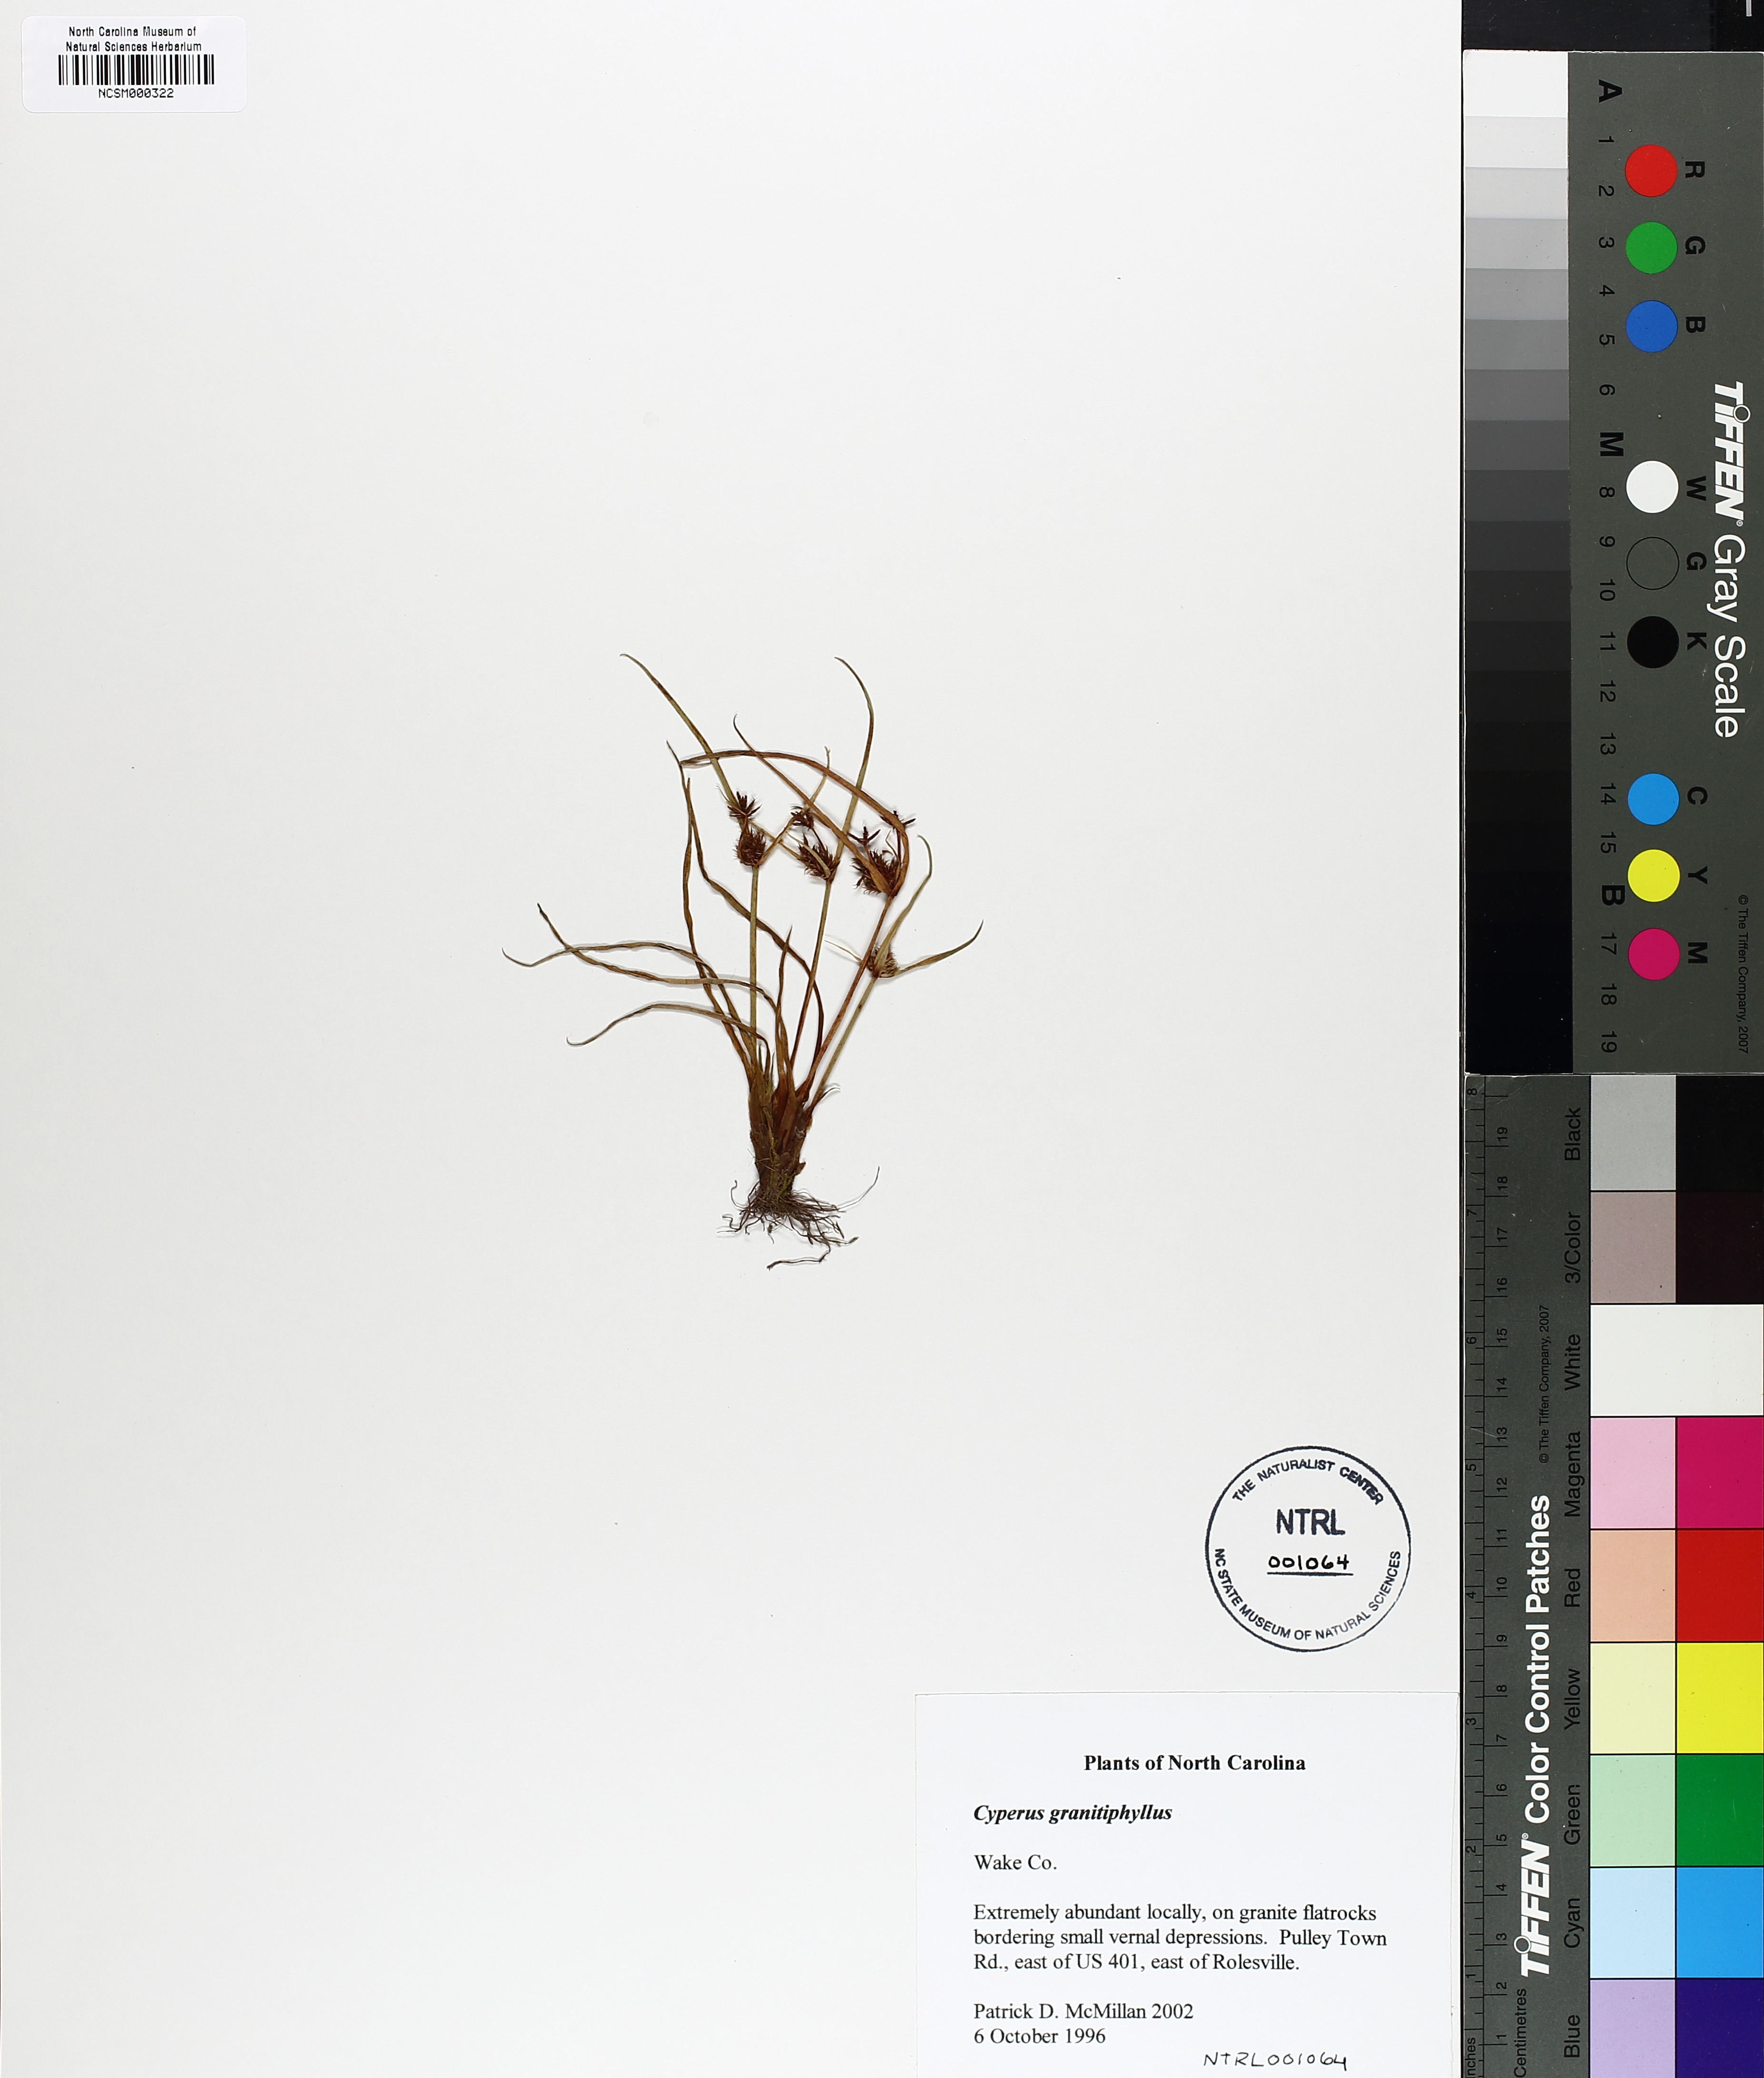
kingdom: Plantae
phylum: Tracheophyta
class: Liliopsida
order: Poales
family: Cyperaceae
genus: Cyperus
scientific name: Cyperus granitophilus
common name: Granite flatsedge
